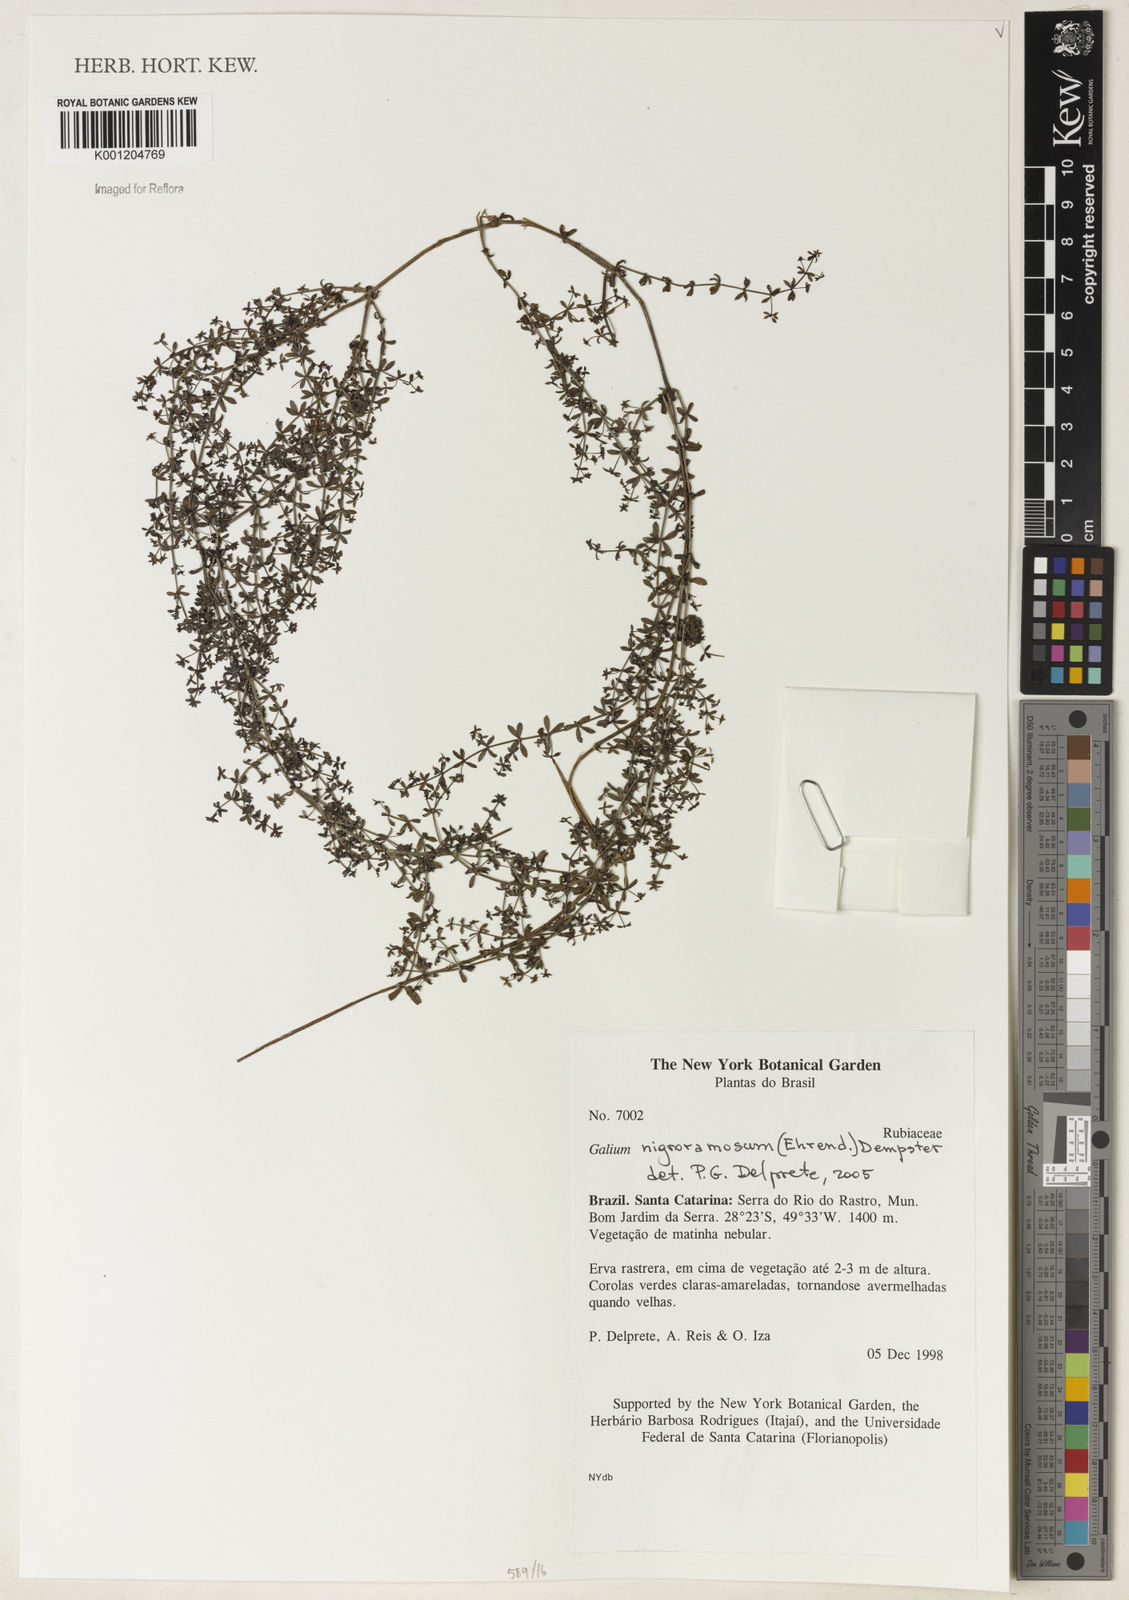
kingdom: Plantae
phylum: Tracheophyta
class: Magnoliopsida
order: Gentianales
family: Rubiaceae
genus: Galium
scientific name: Galium nigroramosum
